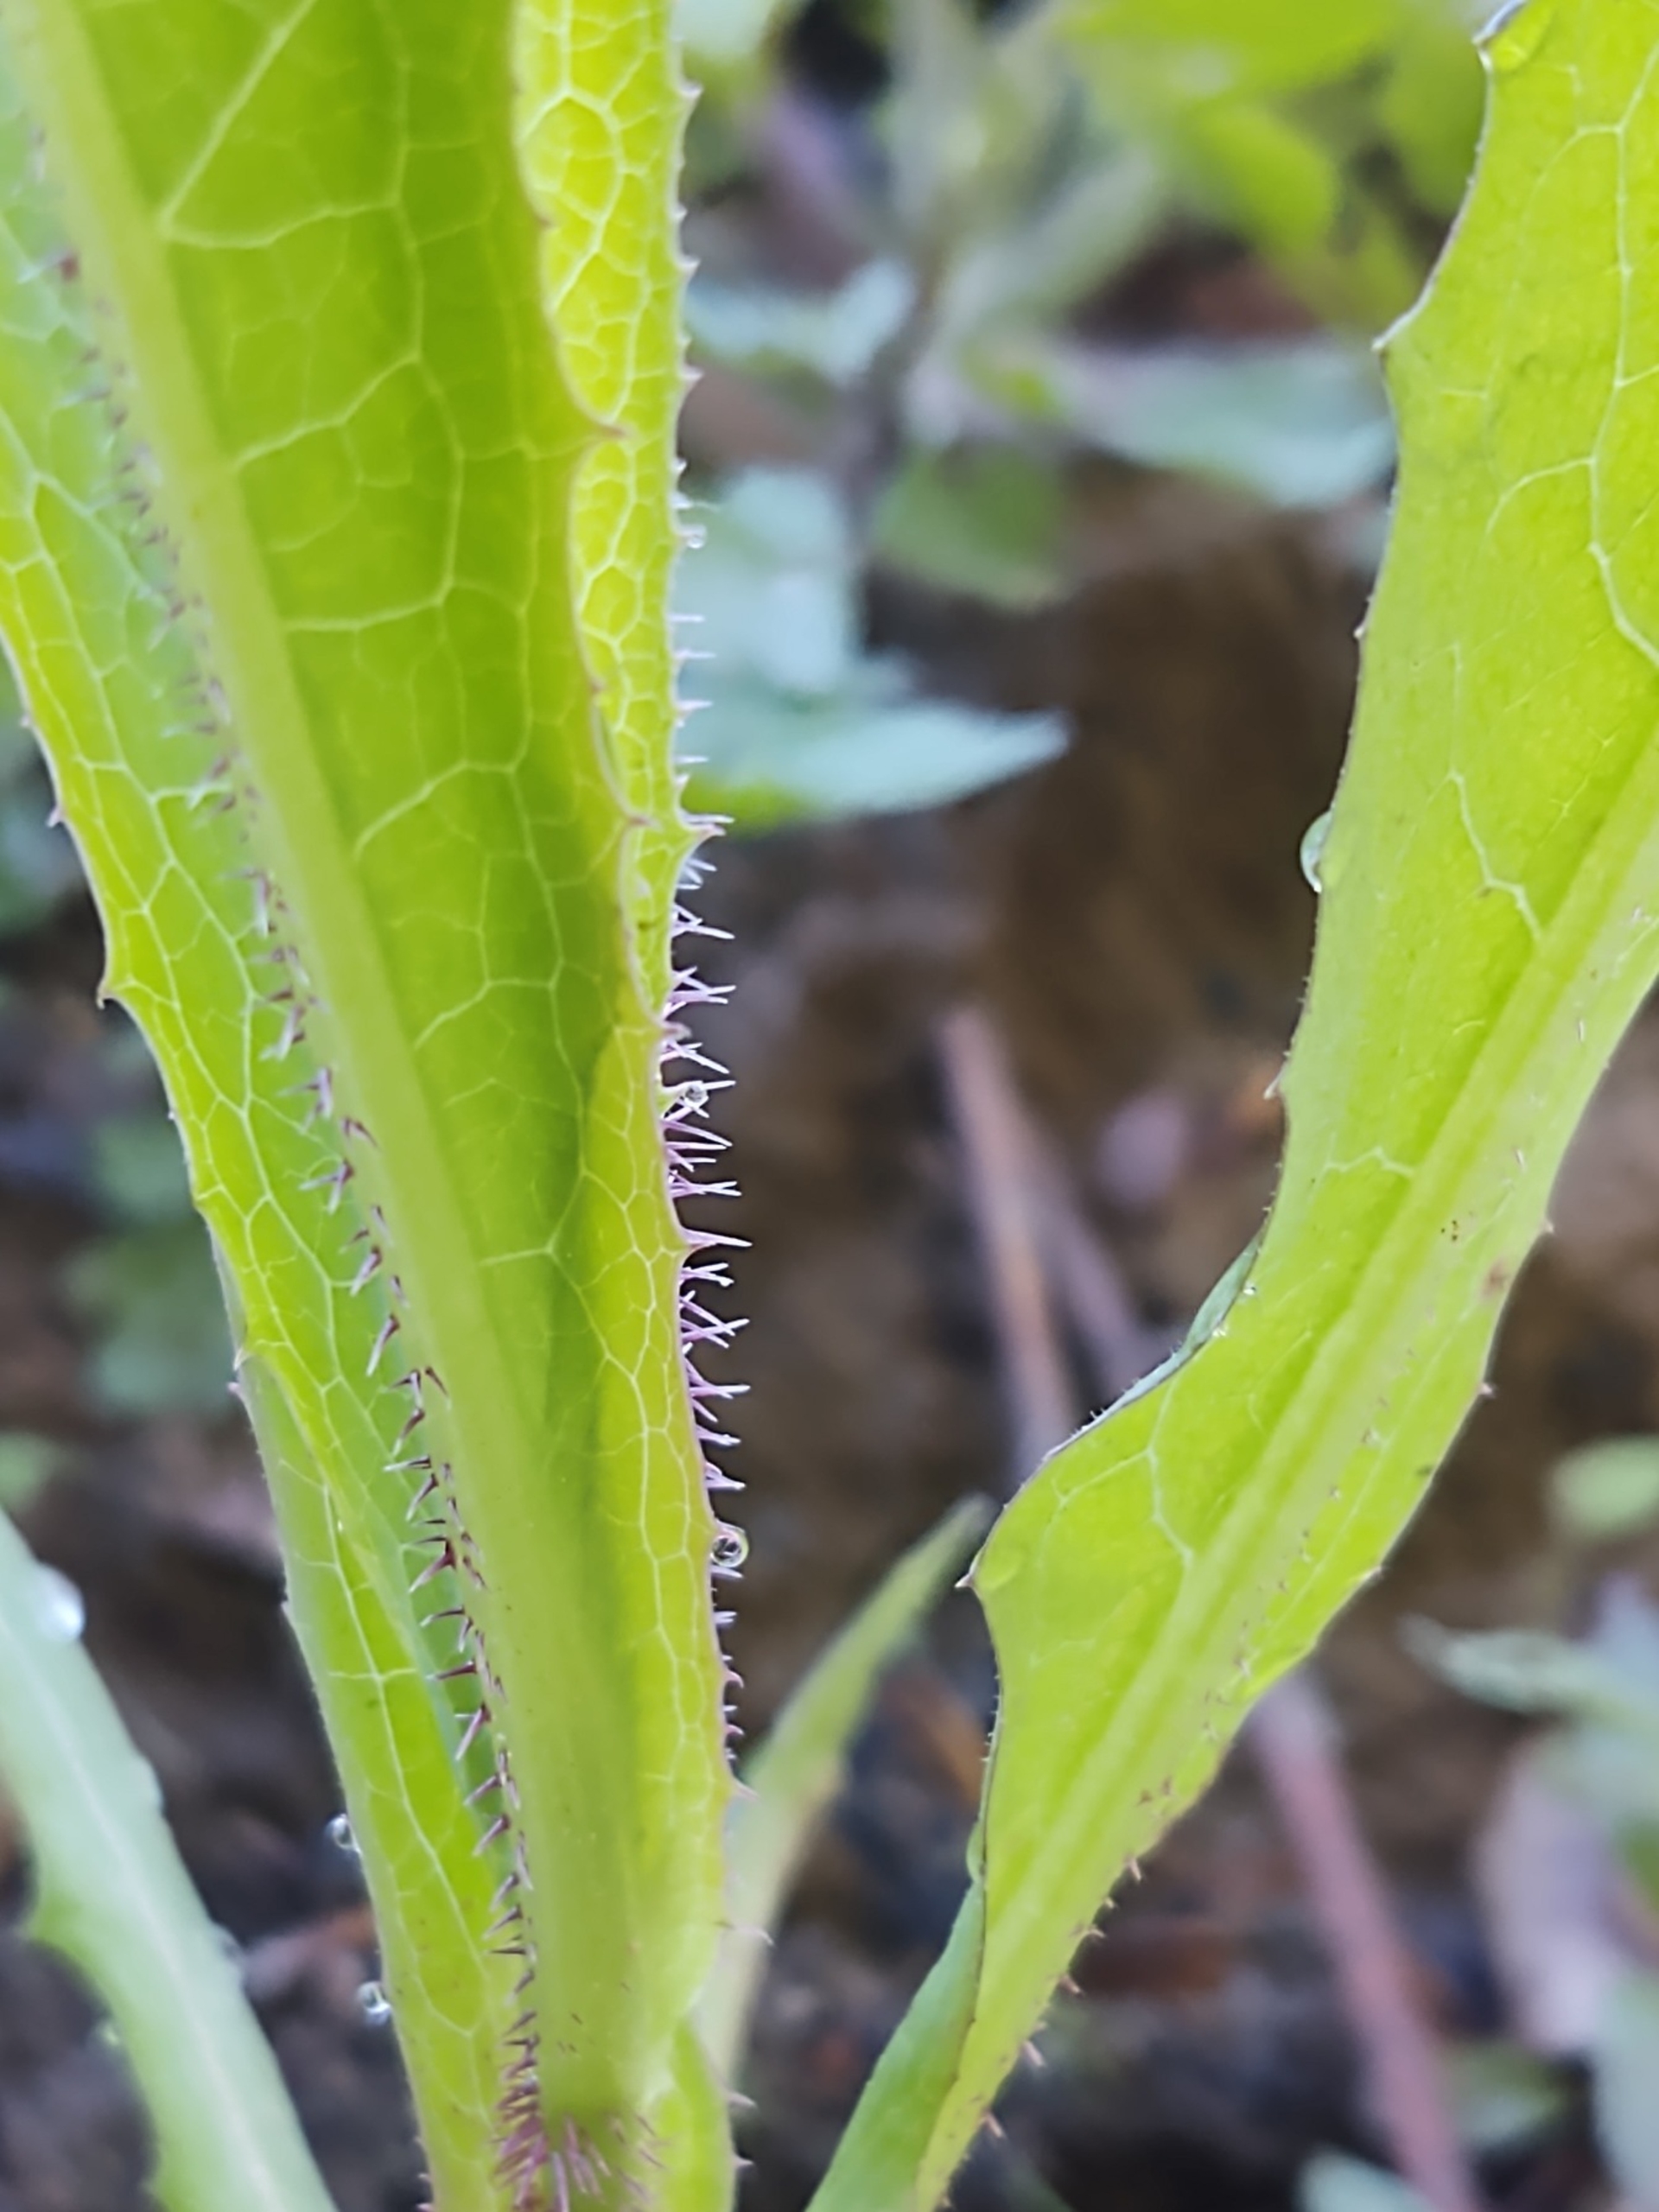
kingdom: Plantae
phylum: Tracheophyta
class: Magnoliopsida
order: Asterales
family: Asteraceae
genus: Lactuca
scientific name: Lactuca serriola
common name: Tornet salat
